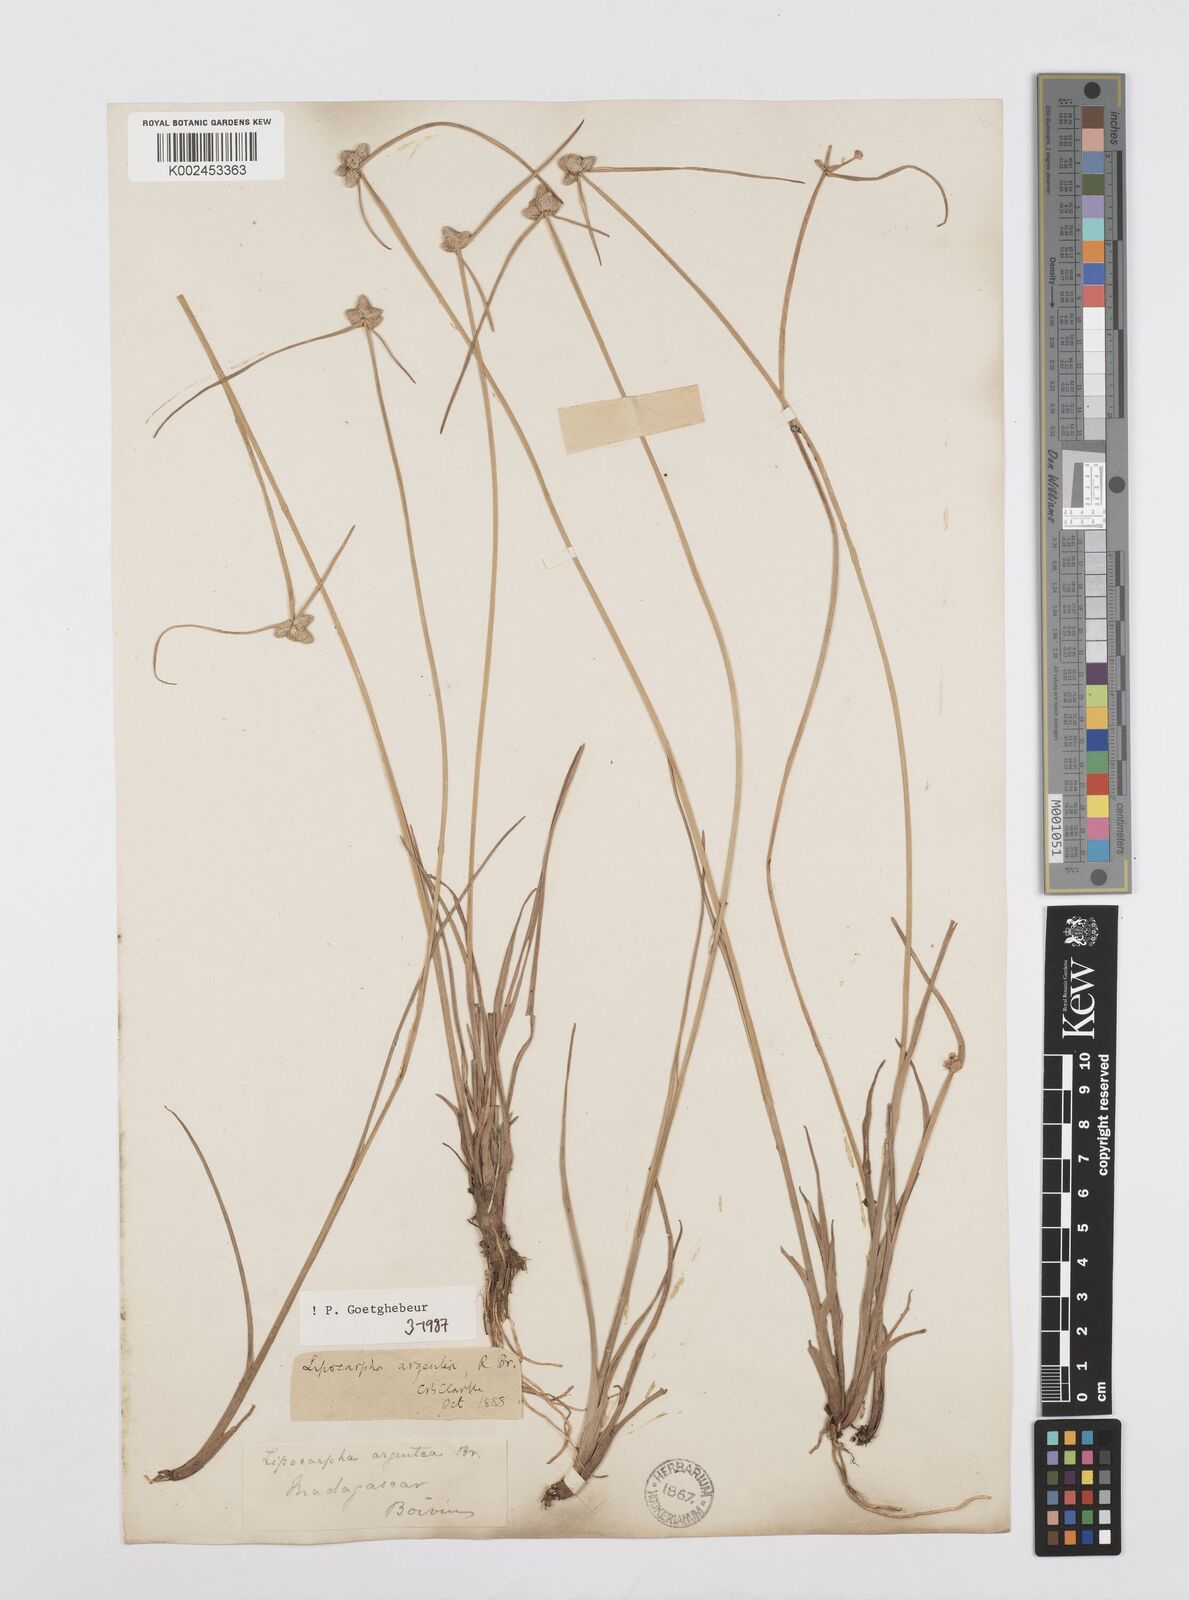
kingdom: Plantae
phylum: Tracheophyta
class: Liliopsida
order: Poales
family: Cyperaceae
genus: Cyperus
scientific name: Cyperus
